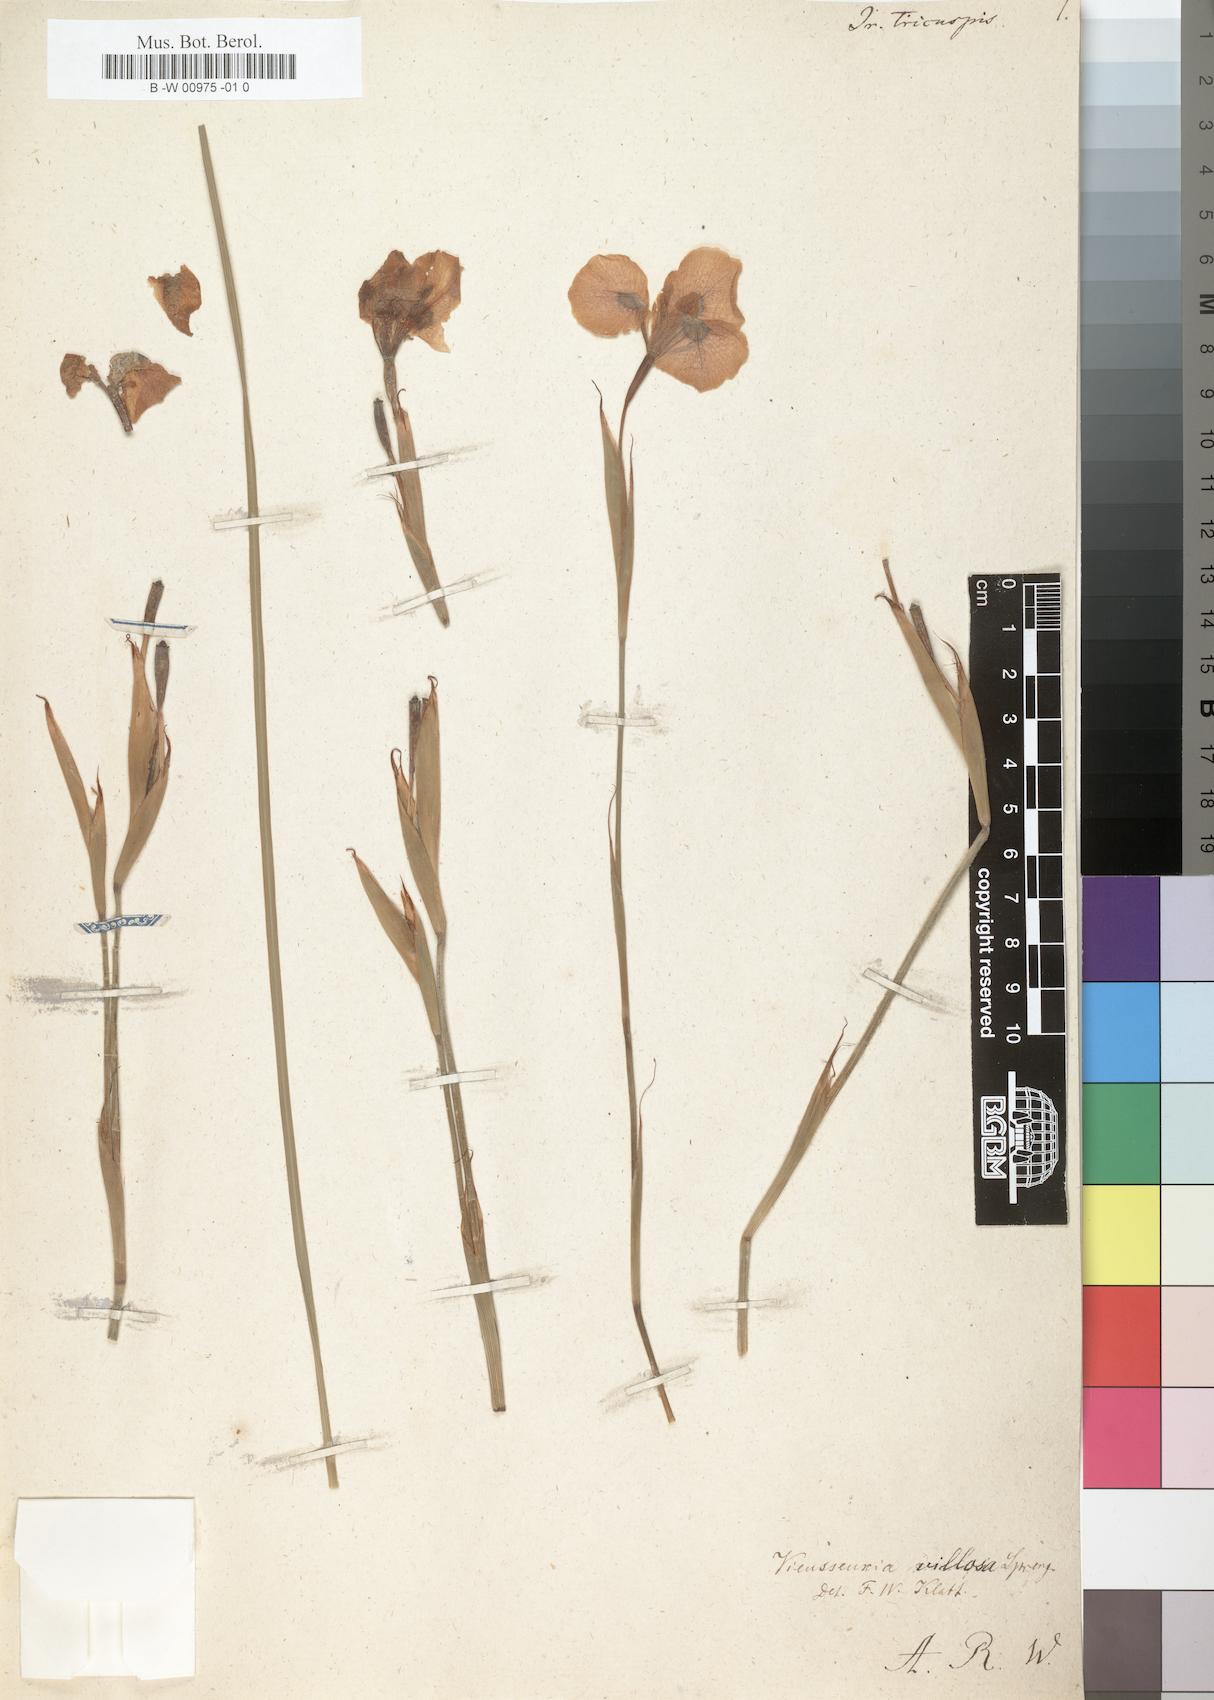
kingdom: Plantae
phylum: Tracheophyta
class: Liliopsida
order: Asparagales
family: Iridaceae
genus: Moraea
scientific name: Moraea aristata
